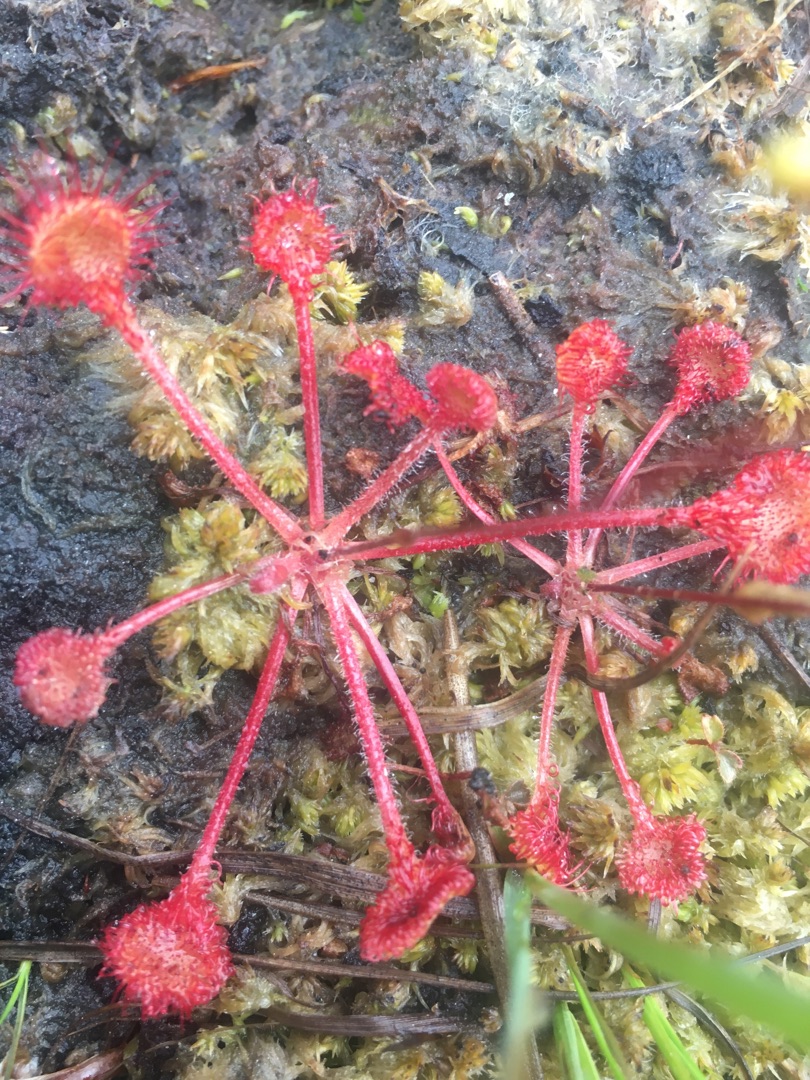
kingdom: Plantae
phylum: Tracheophyta
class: Magnoliopsida
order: Caryophyllales
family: Droseraceae
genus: Drosera
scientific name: Drosera rotundifolia
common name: Rundbladet soldug
